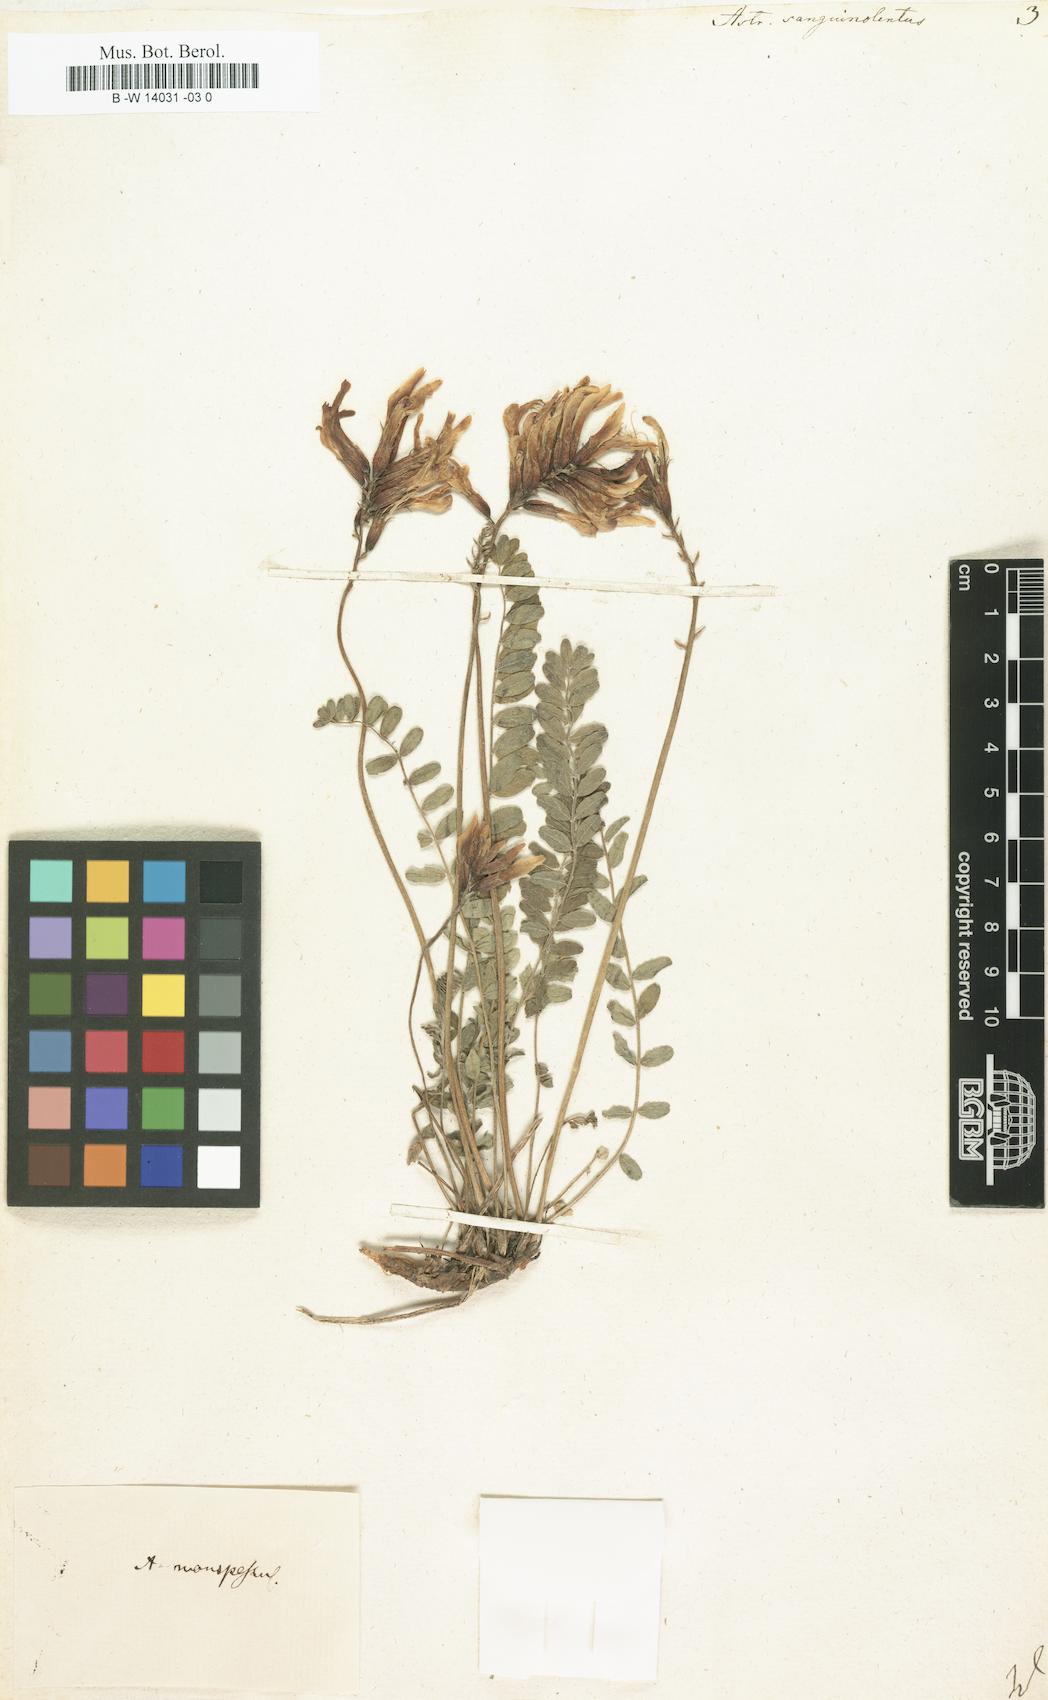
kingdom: Plantae
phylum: Tracheophyta
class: Magnoliopsida
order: Fabales
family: Fabaceae
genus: Astragalus
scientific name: Astragalus sanguinolentus
